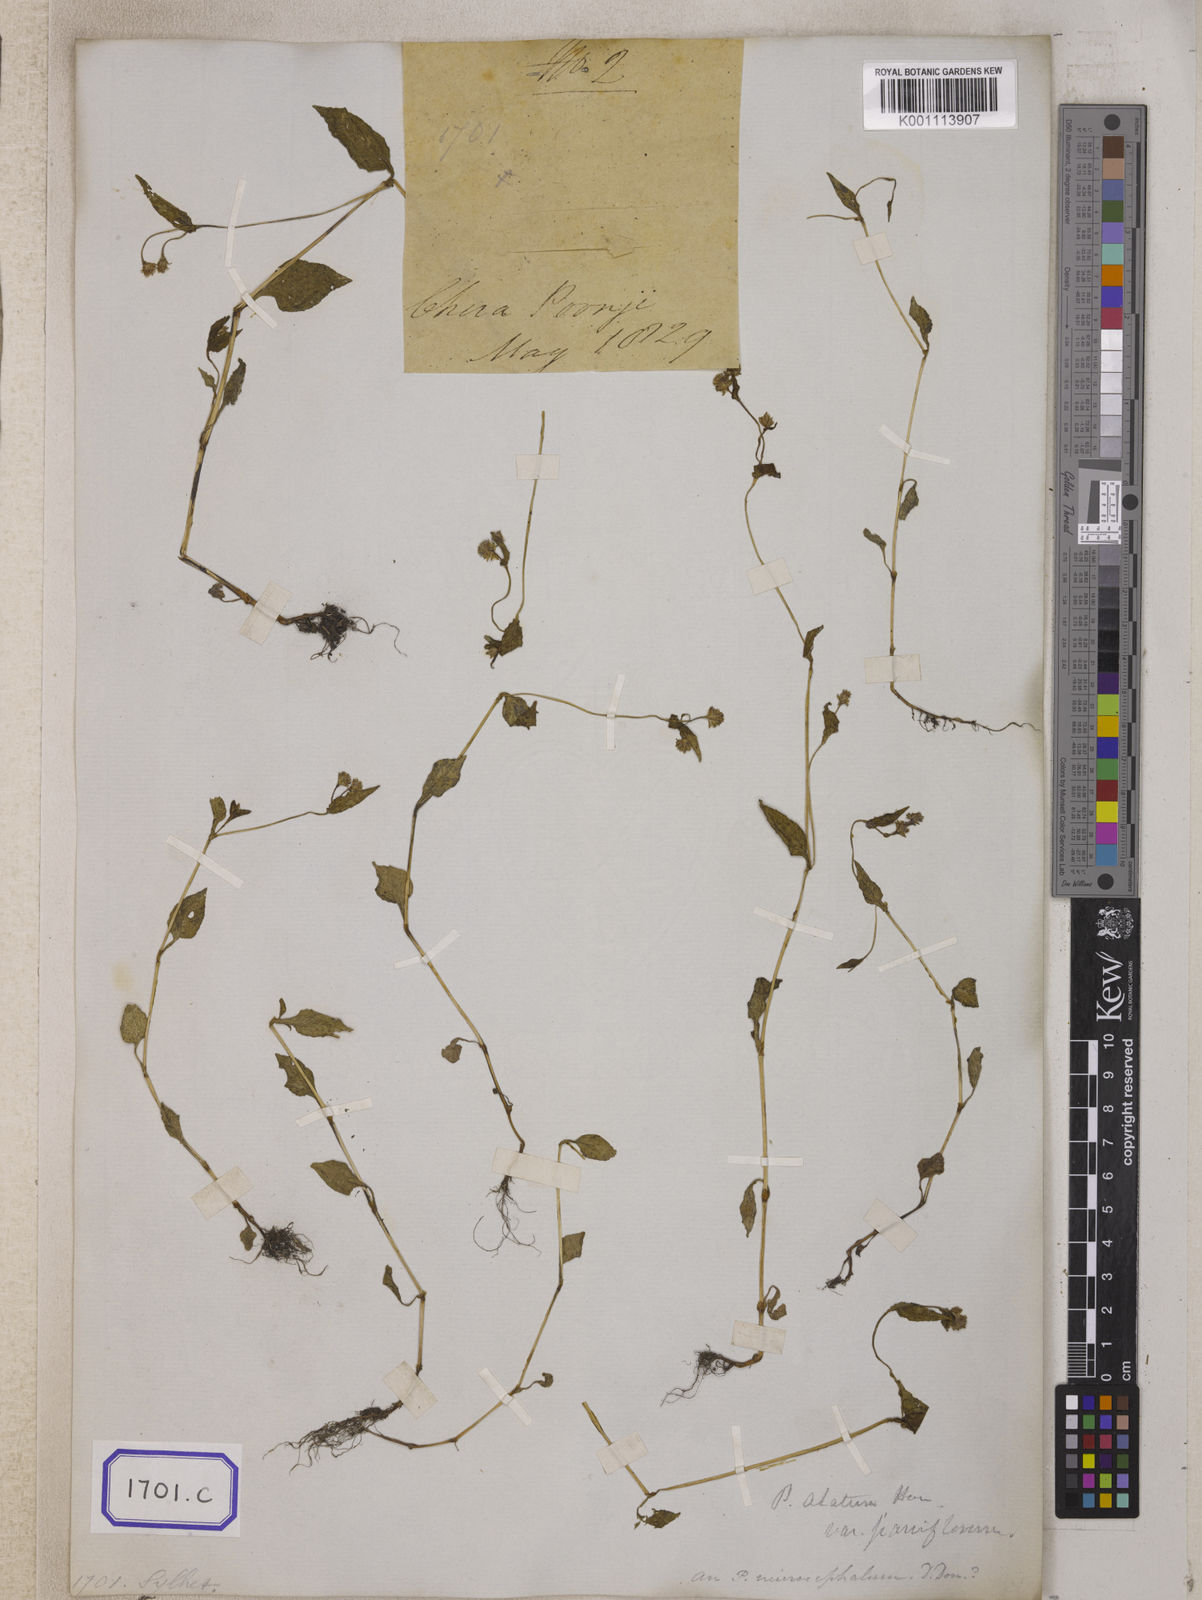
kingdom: Plantae
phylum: Tracheophyta
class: Magnoliopsida
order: Caryophyllales
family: Polygonaceae
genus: Persicaria
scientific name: Persicaria nepalensis
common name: Nepal persicaria
